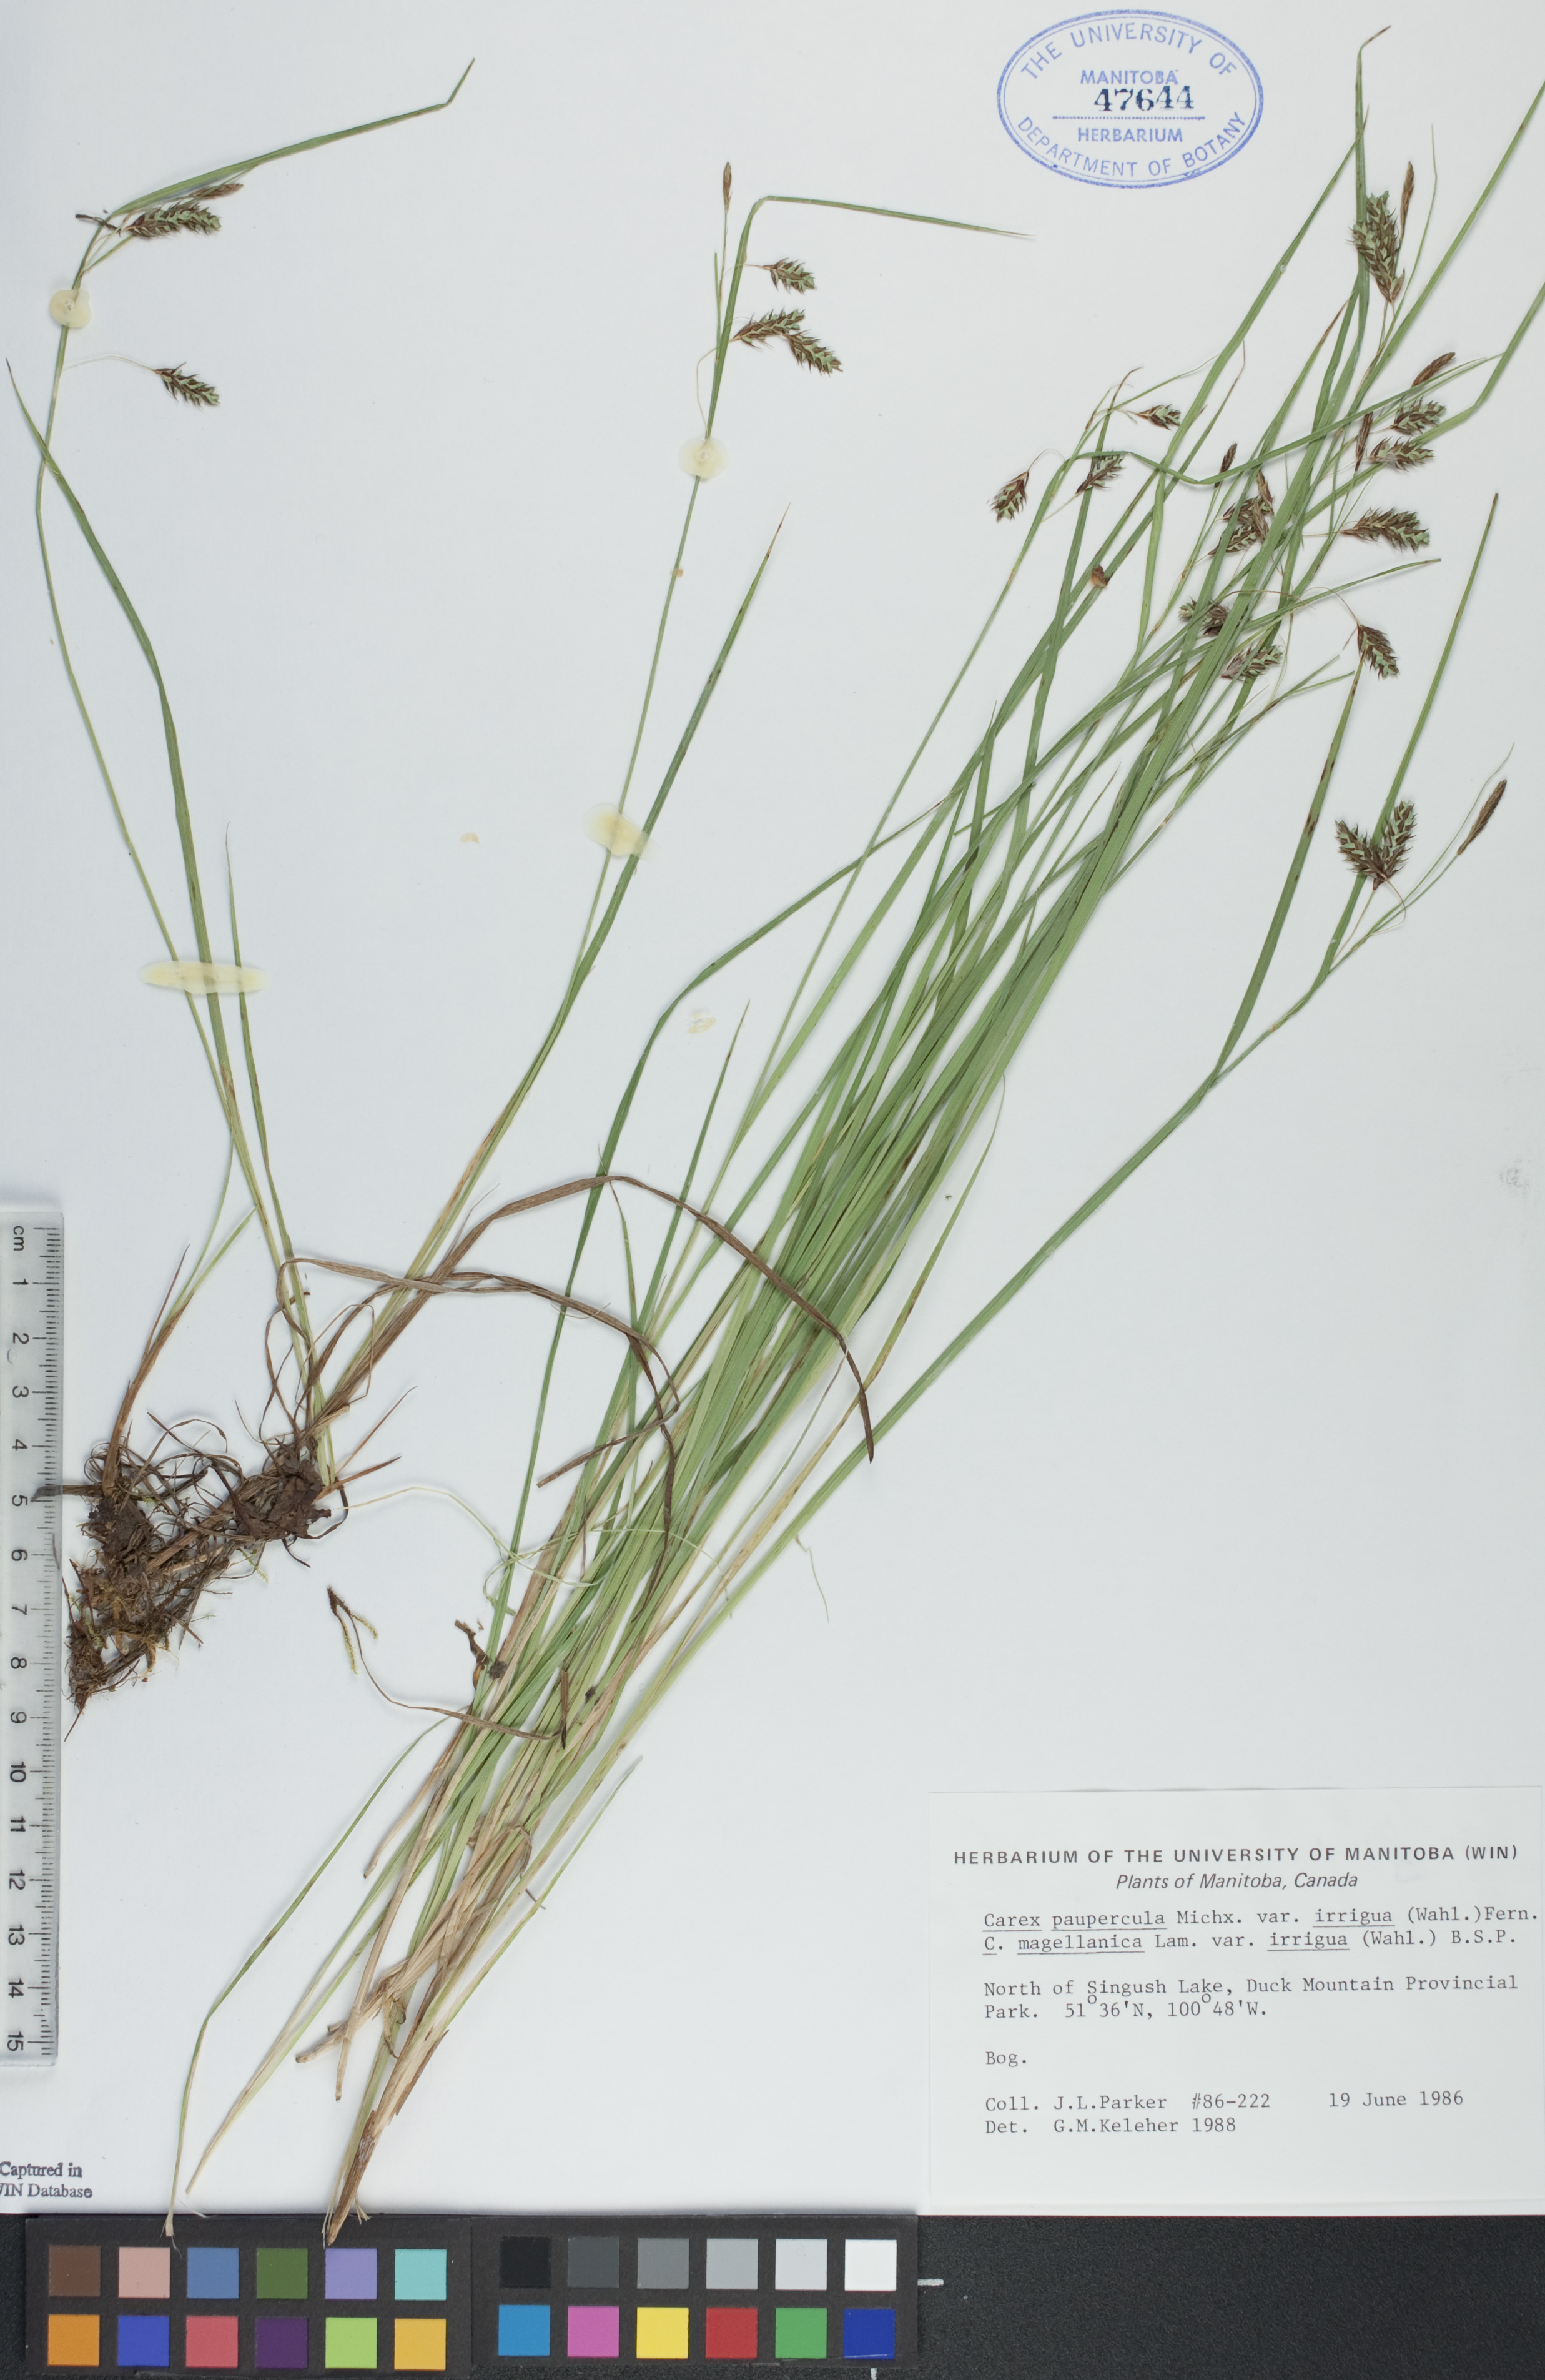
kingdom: Plantae
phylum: Tracheophyta
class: Liliopsida
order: Poales
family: Cyperaceae
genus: Carex
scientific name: Carex magellanica
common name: Bog sedge
